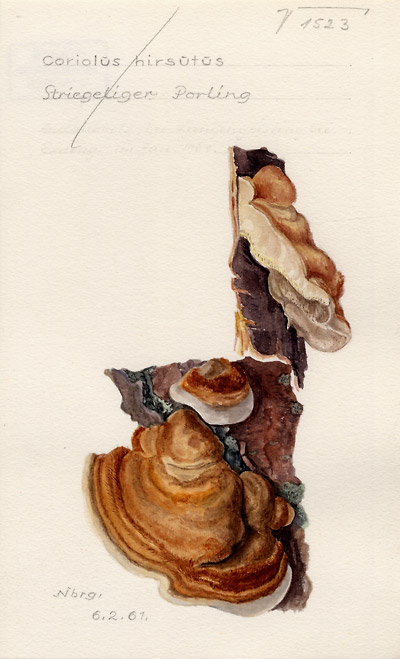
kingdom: Fungi
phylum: Basidiomycota
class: Agaricomycetes
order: Polyporales
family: Polyporaceae
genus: Trametes
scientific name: Trametes hirsuta
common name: Hairy bracket
